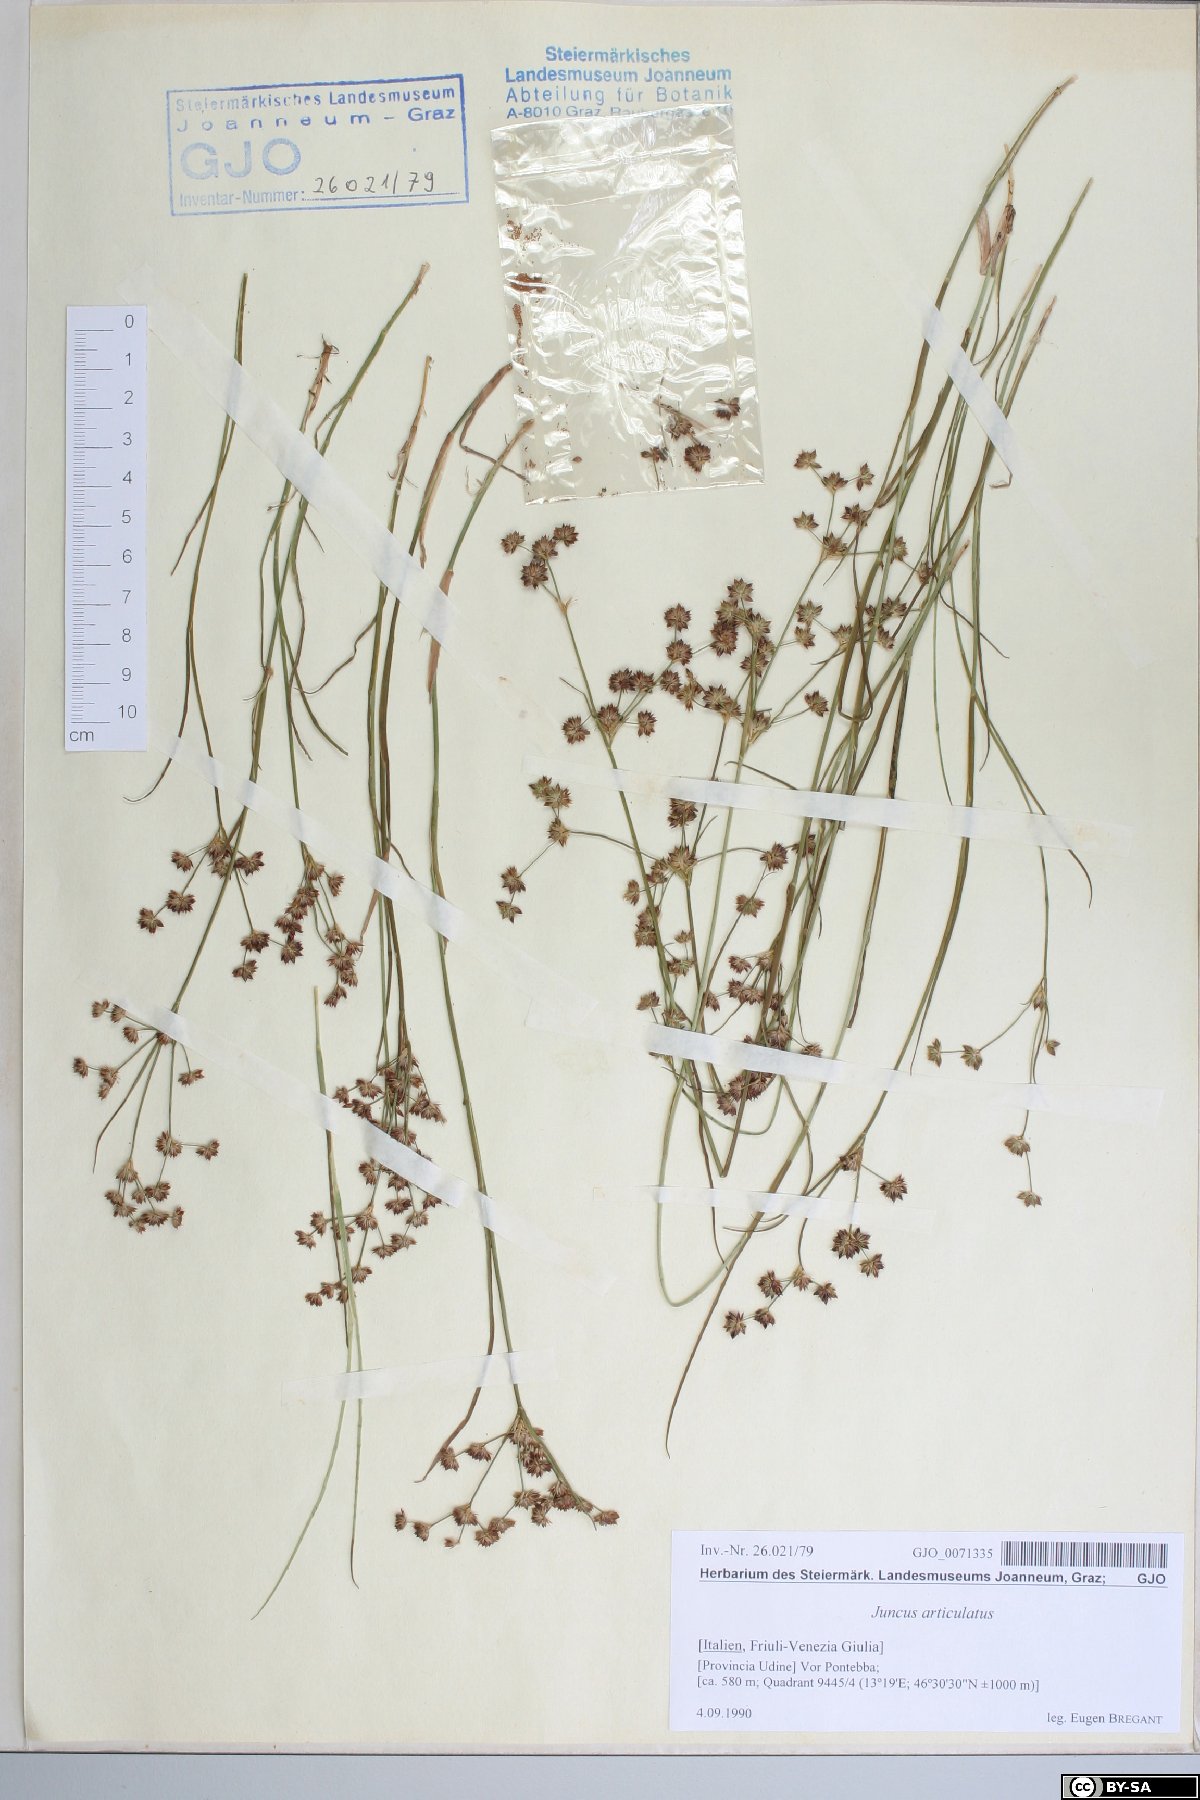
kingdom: Plantae
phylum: Tracheophyta
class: Liliopsida
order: Poales
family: Juncaceae
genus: Juncus
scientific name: Juncus articulatus
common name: Jointed rush
